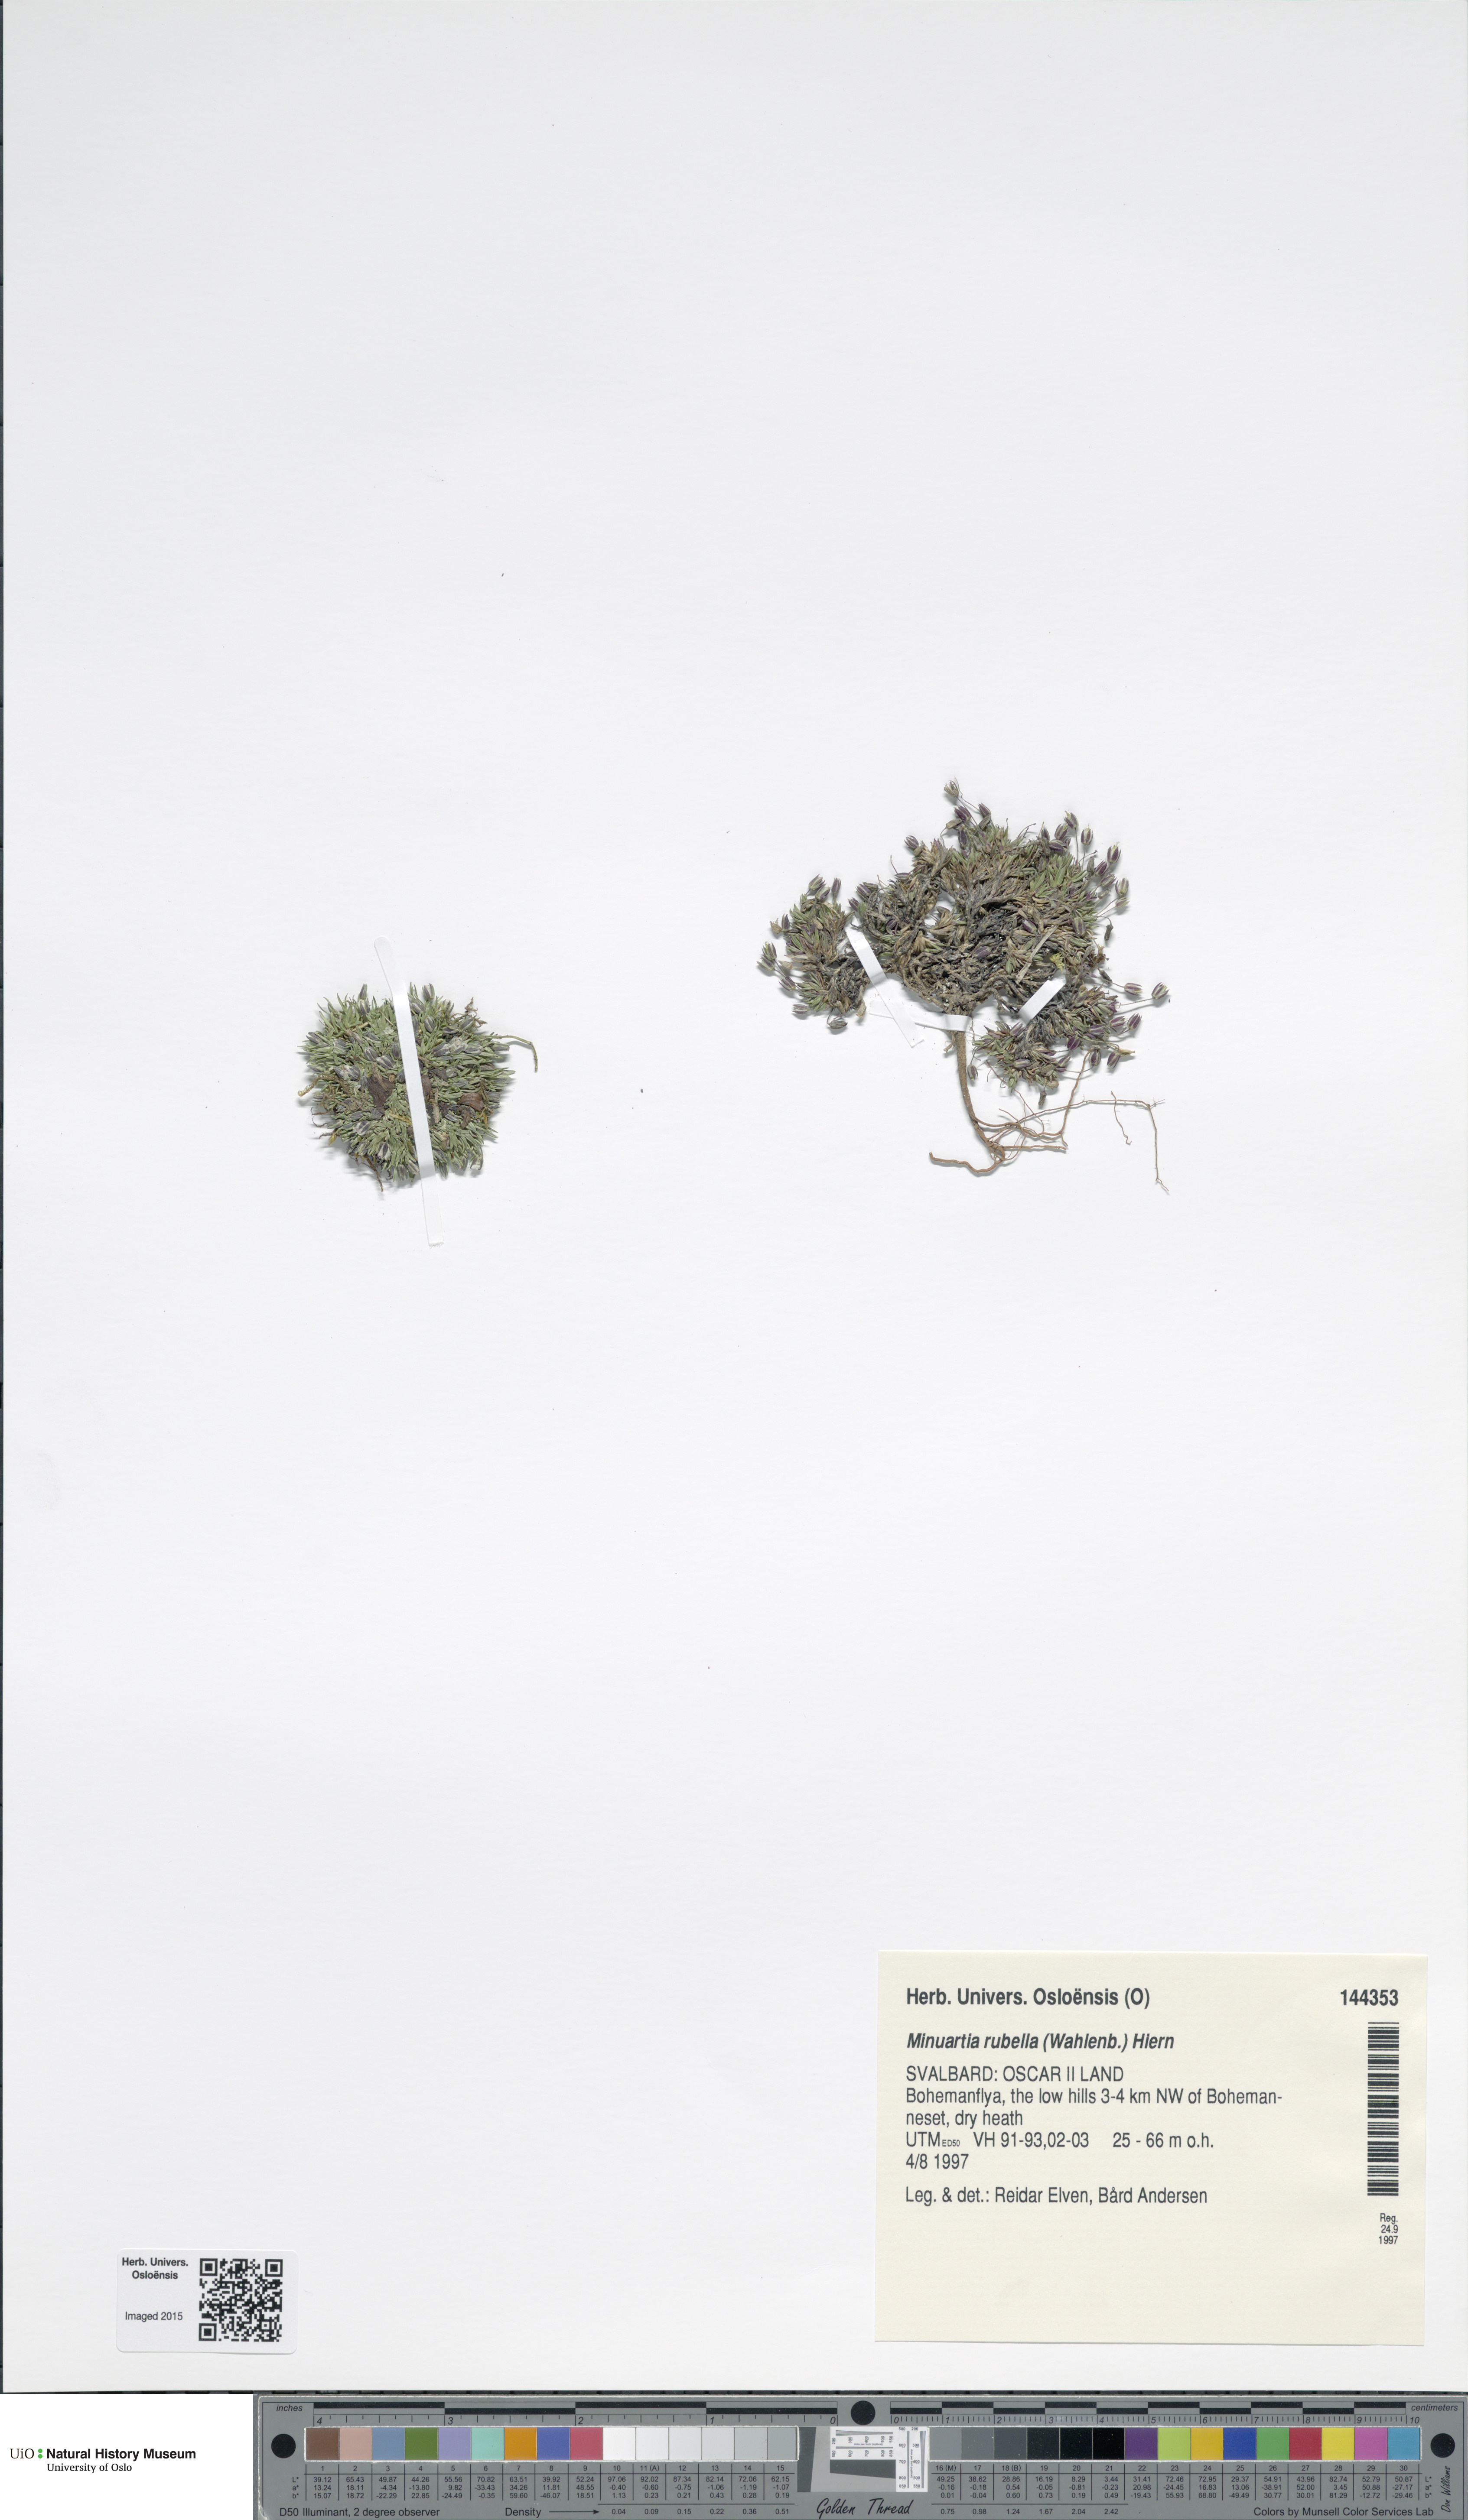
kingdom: Plantae
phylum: Tracheophyta
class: Magnoliopsida
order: Caryophyllales
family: Caryophyllaceae
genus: Sabulina
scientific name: Sabulina rubella
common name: Beautiful sandwort
